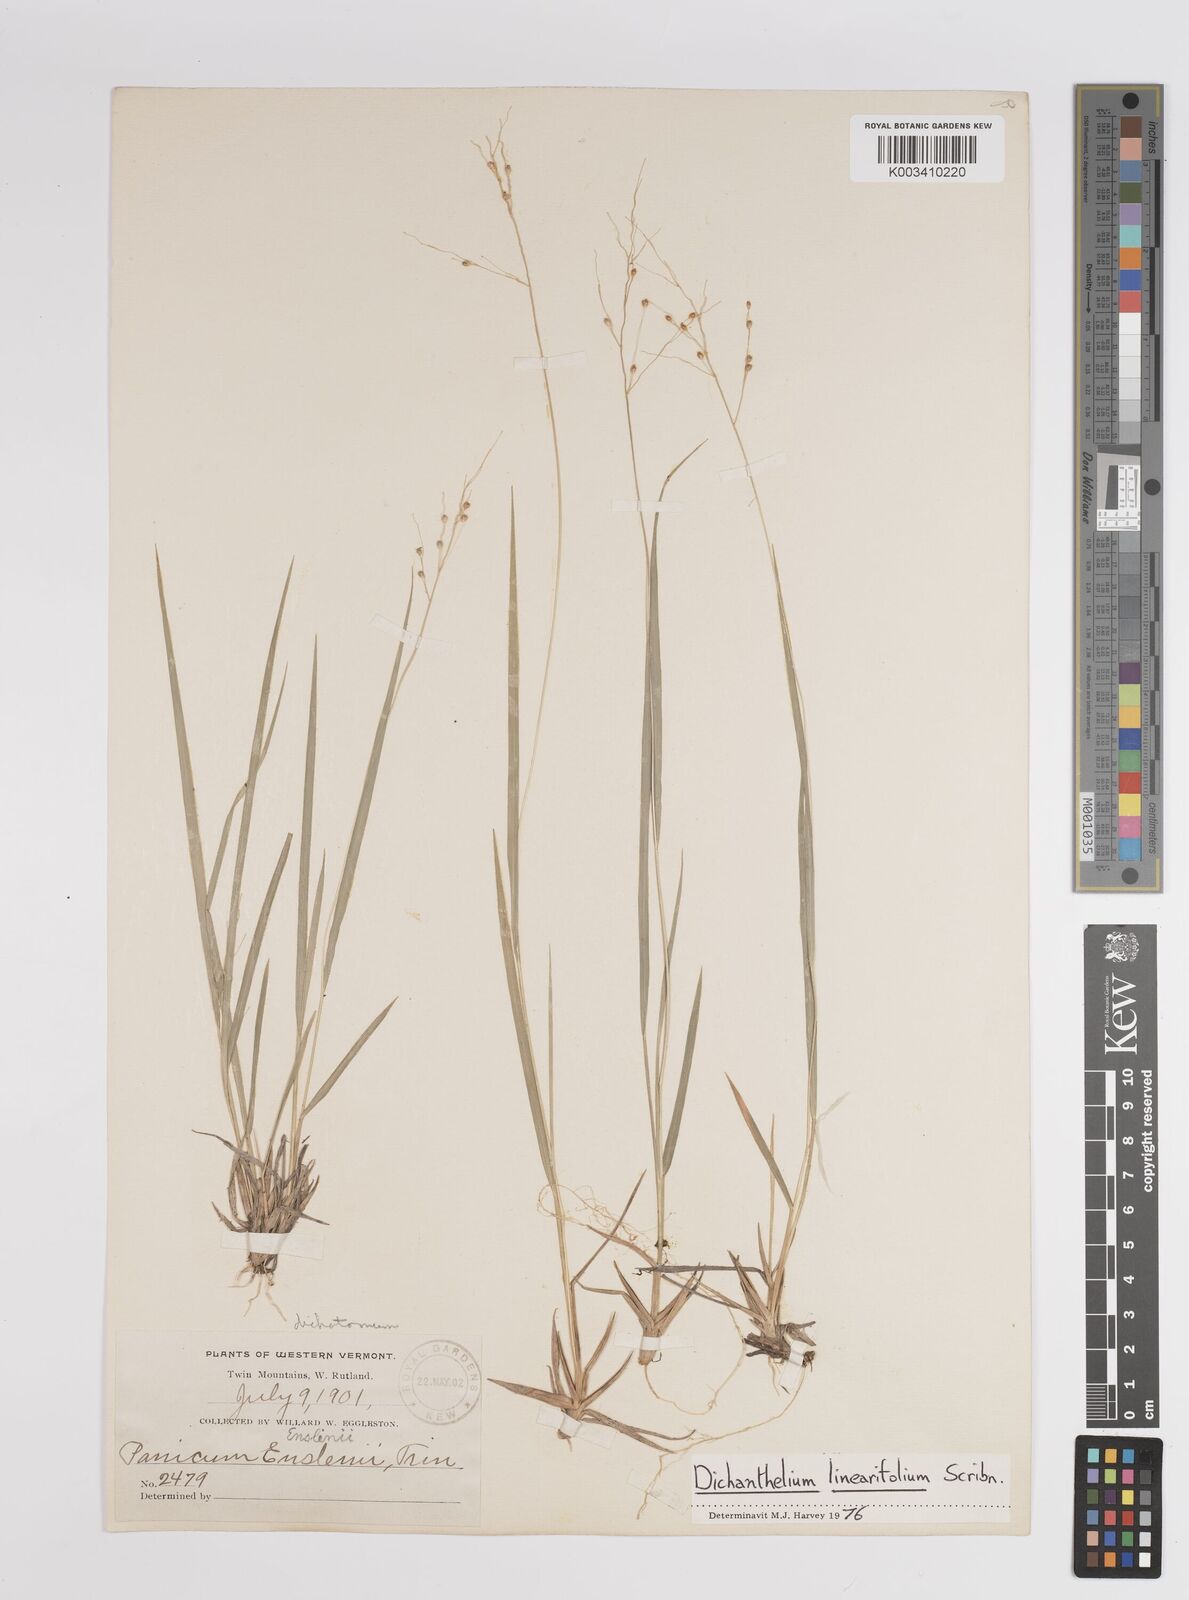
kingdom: Plantae
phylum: Tracheophyta
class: Liliopsida
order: Poales
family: Poaceae
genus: Dichanthelium
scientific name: Dichanthelium linearifolium
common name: Linear-leaved panicgrass
